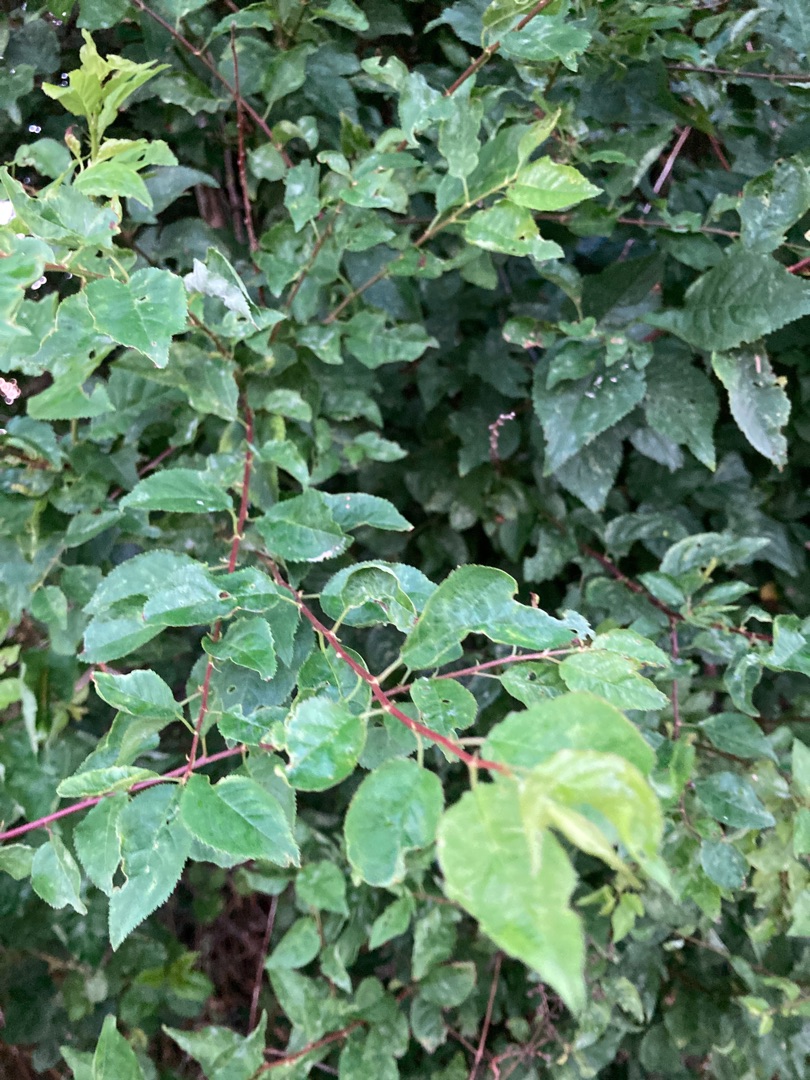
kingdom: Plantae
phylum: Tracheophyta
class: Magnoliopsida
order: Rosales
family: Rosaceae
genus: Prunus
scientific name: Prunus cerasifera
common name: Mirabel
